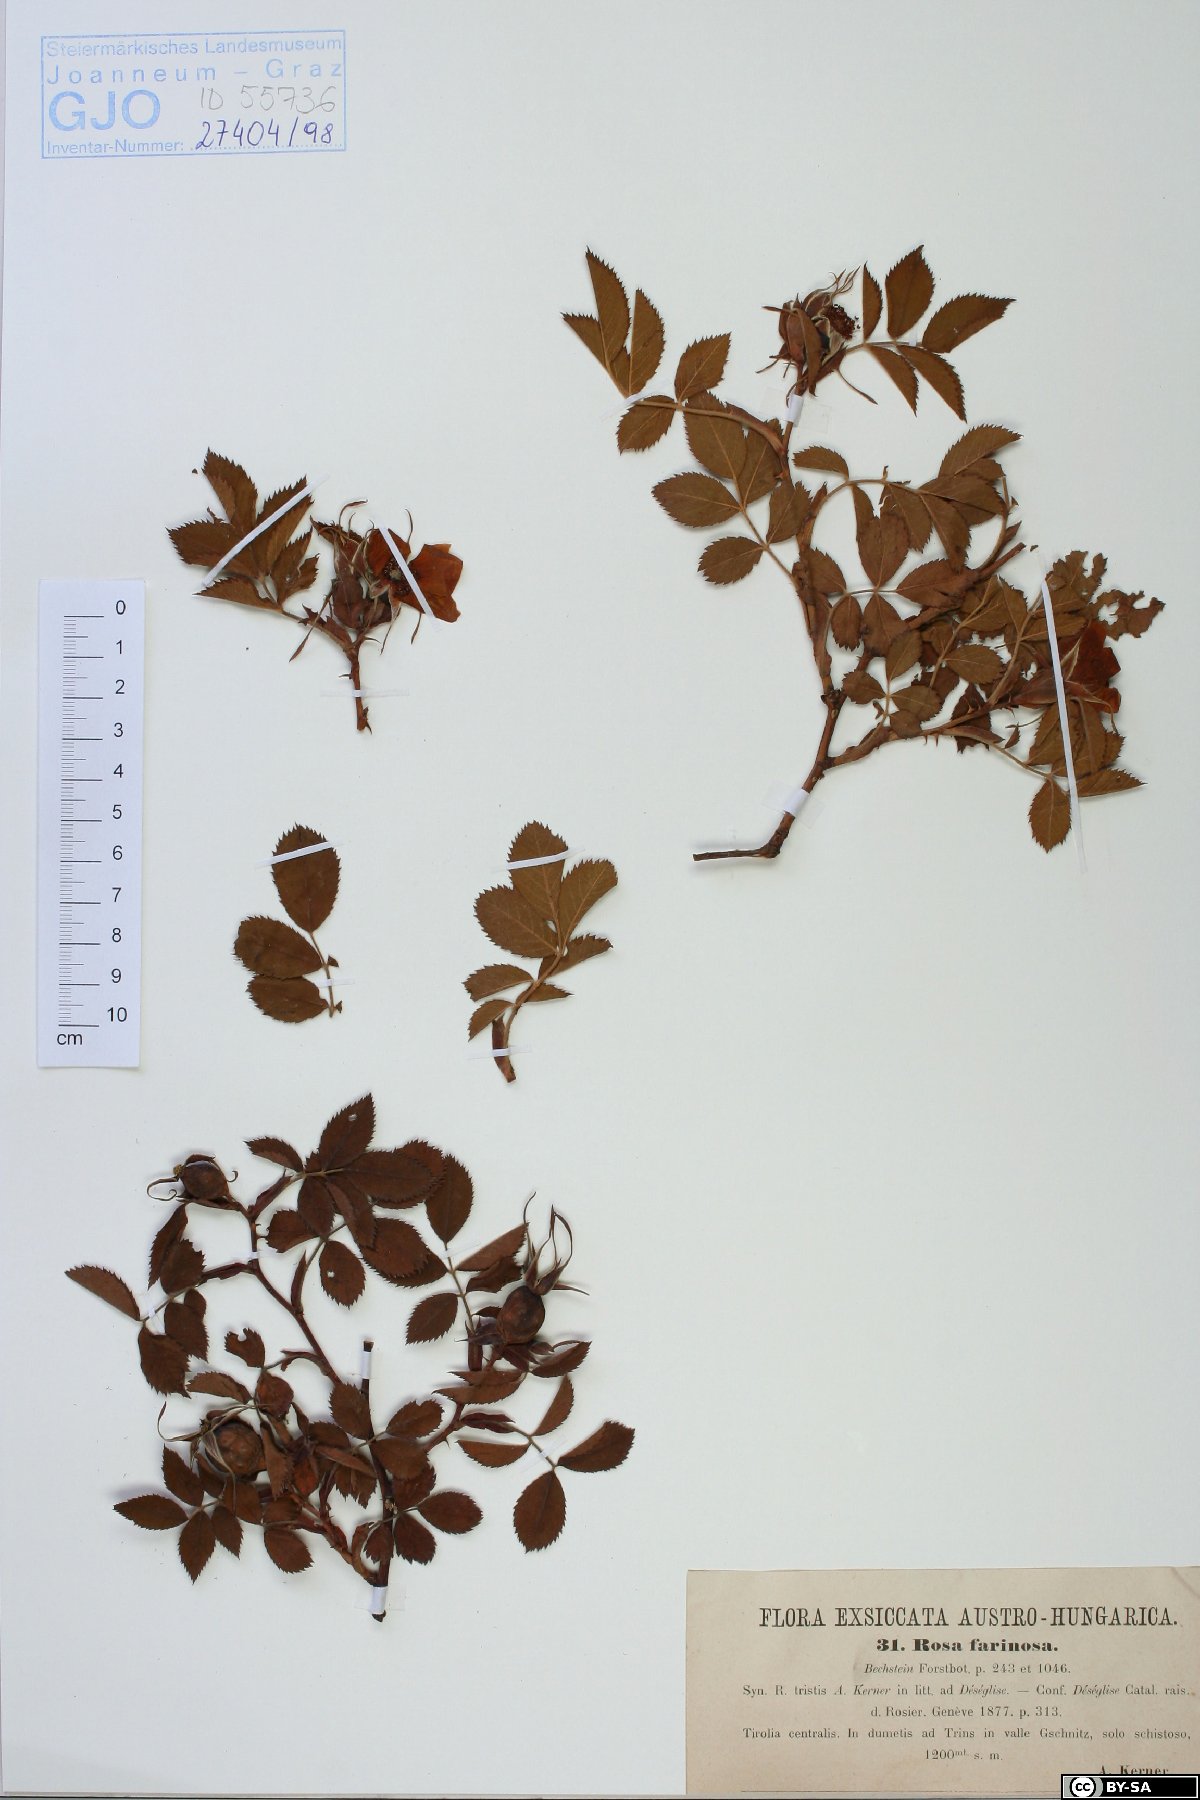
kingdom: Plantae
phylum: Tracheophyta
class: Magnoliopsida
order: Rosales
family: Rosaceae
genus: Rosa
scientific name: Rosa tomentosa
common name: Downy rose
